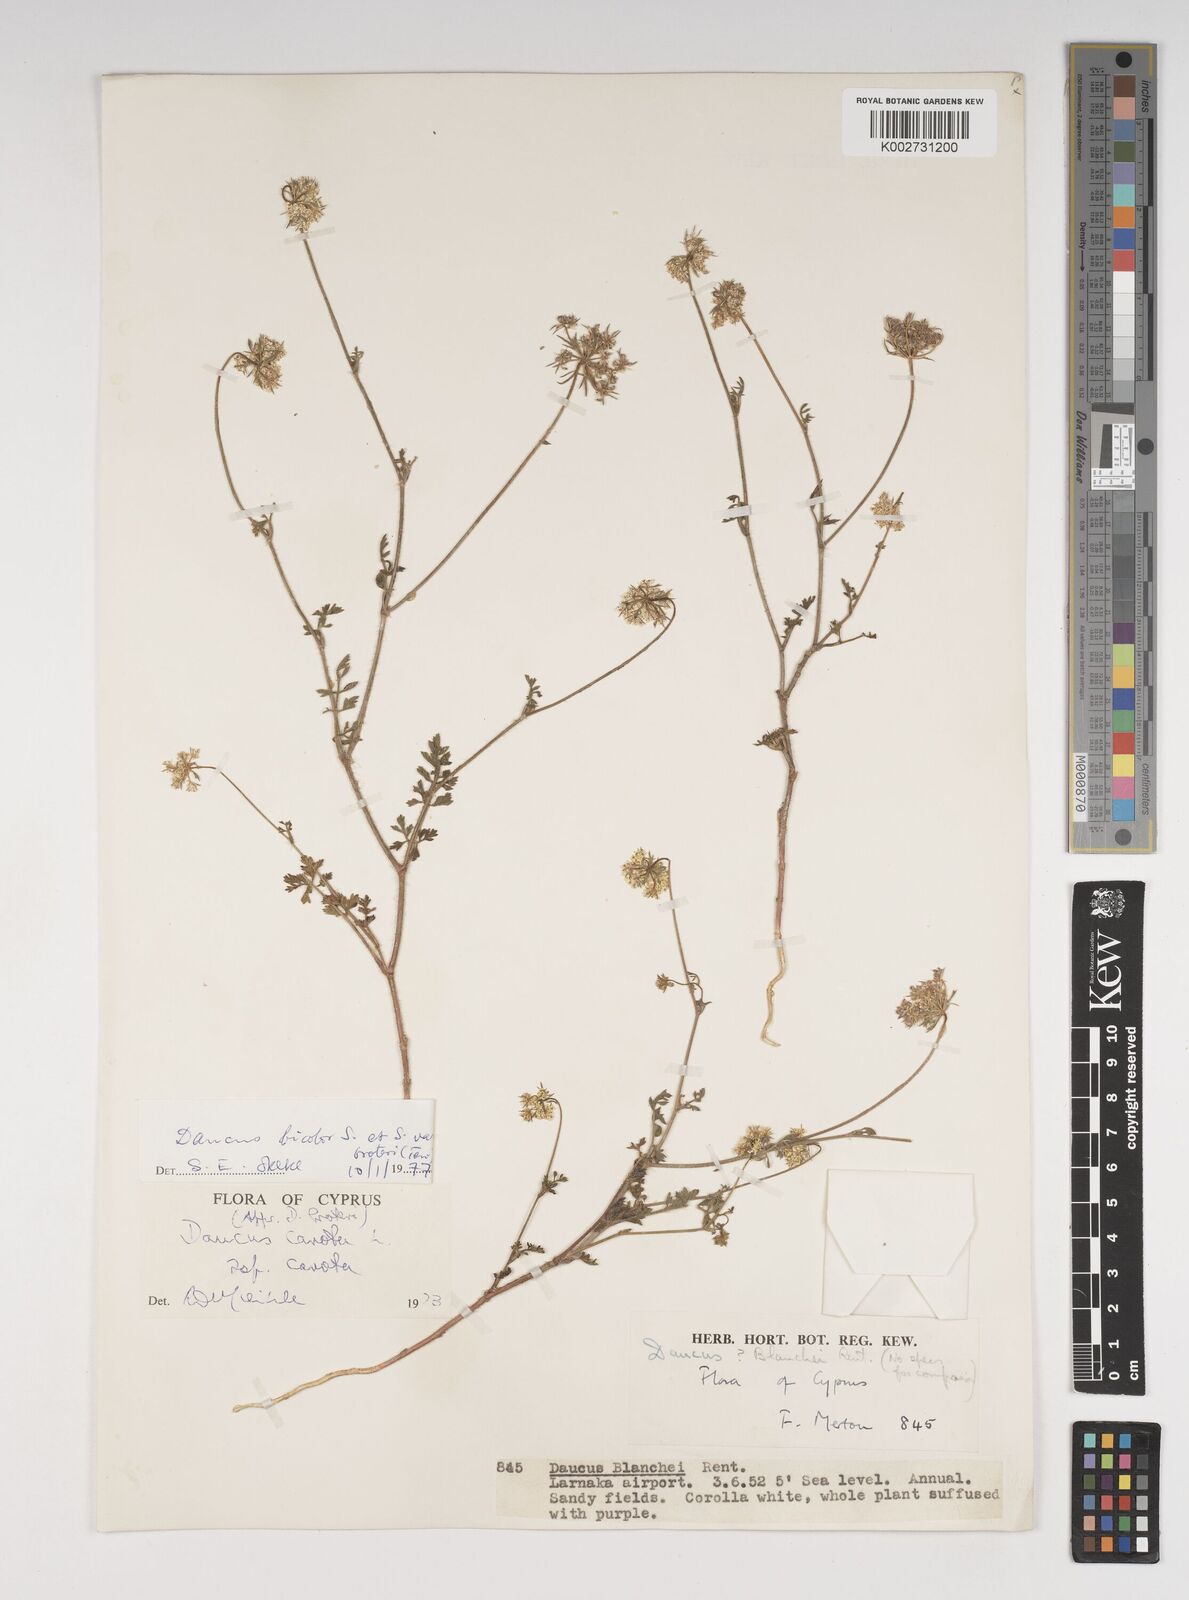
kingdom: Plantae
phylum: Tracheophyta
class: Magnoliopsida
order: Apiales
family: Apiaceae
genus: Daucus
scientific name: Daucus carota
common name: Wild carrot
